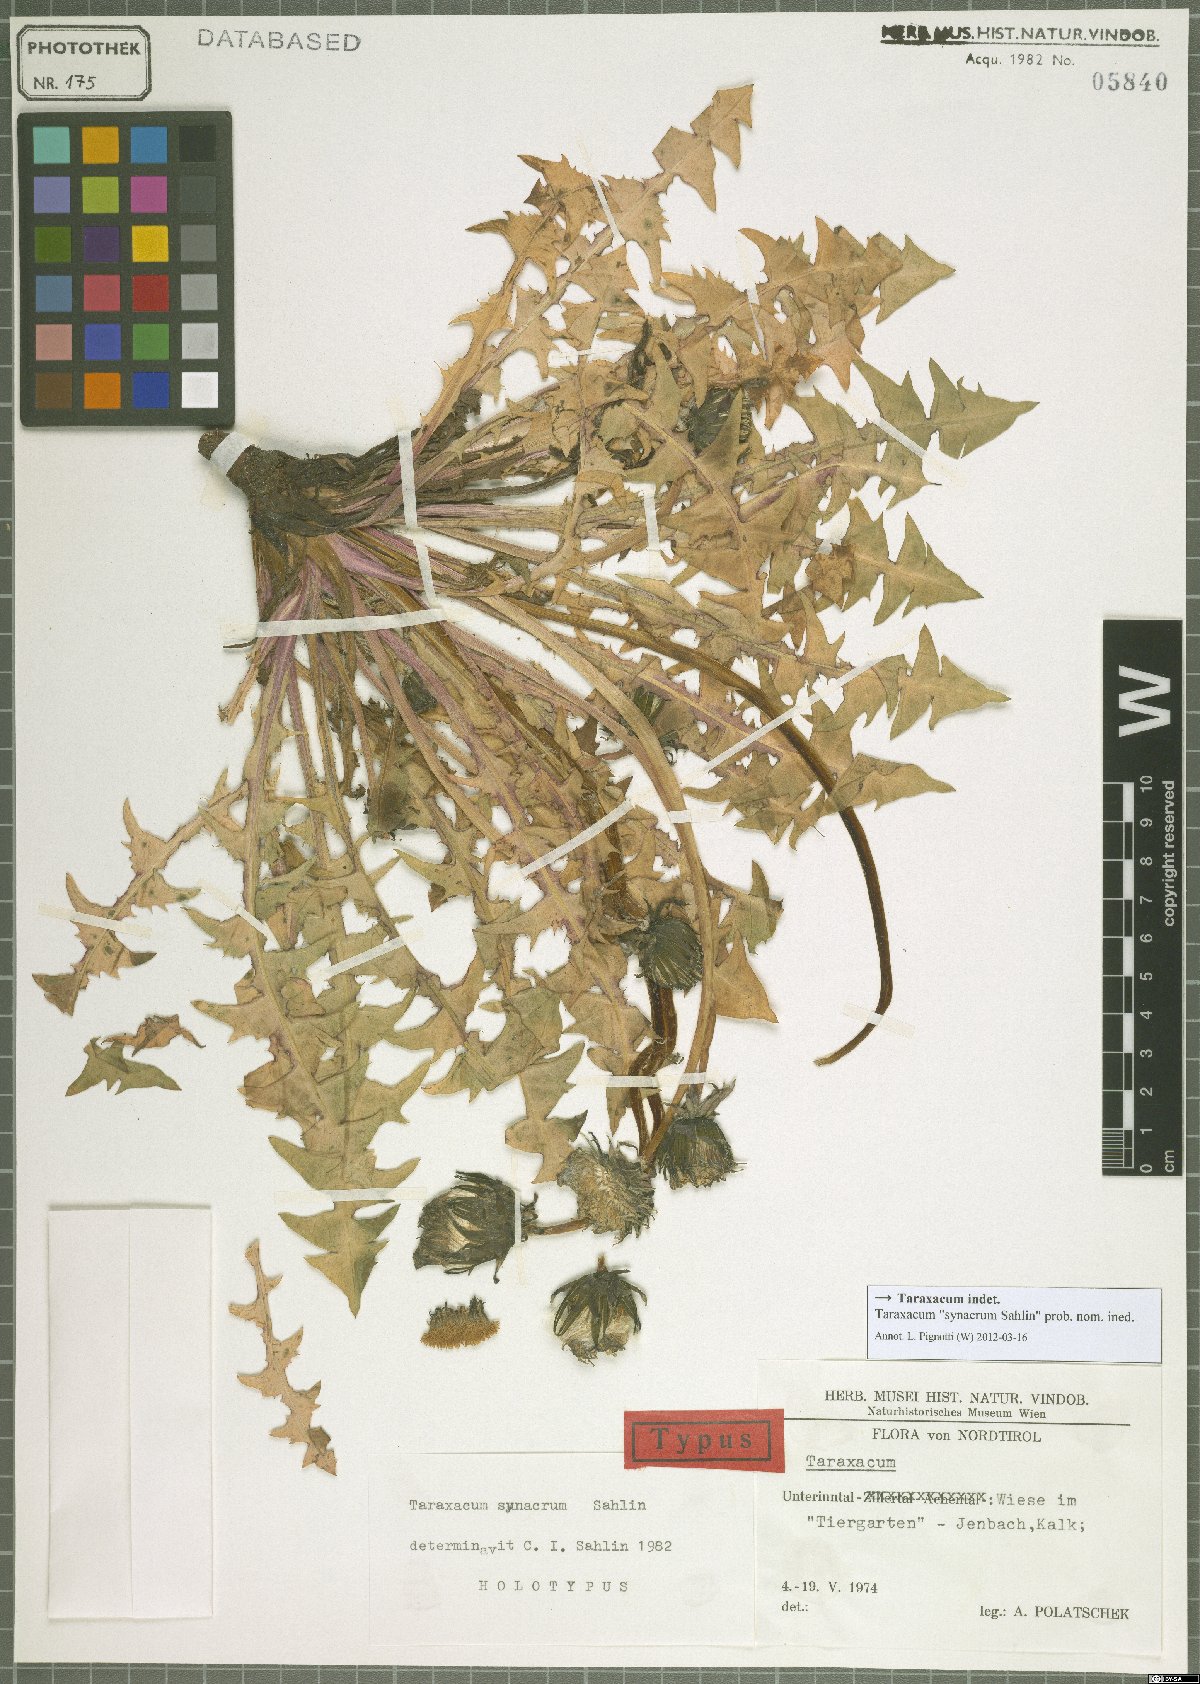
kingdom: Plantae
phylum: Tracheophyta
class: Magnoliopsida
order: Asterales
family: Asteraceae
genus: Taraxacum
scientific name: Taraxacum
